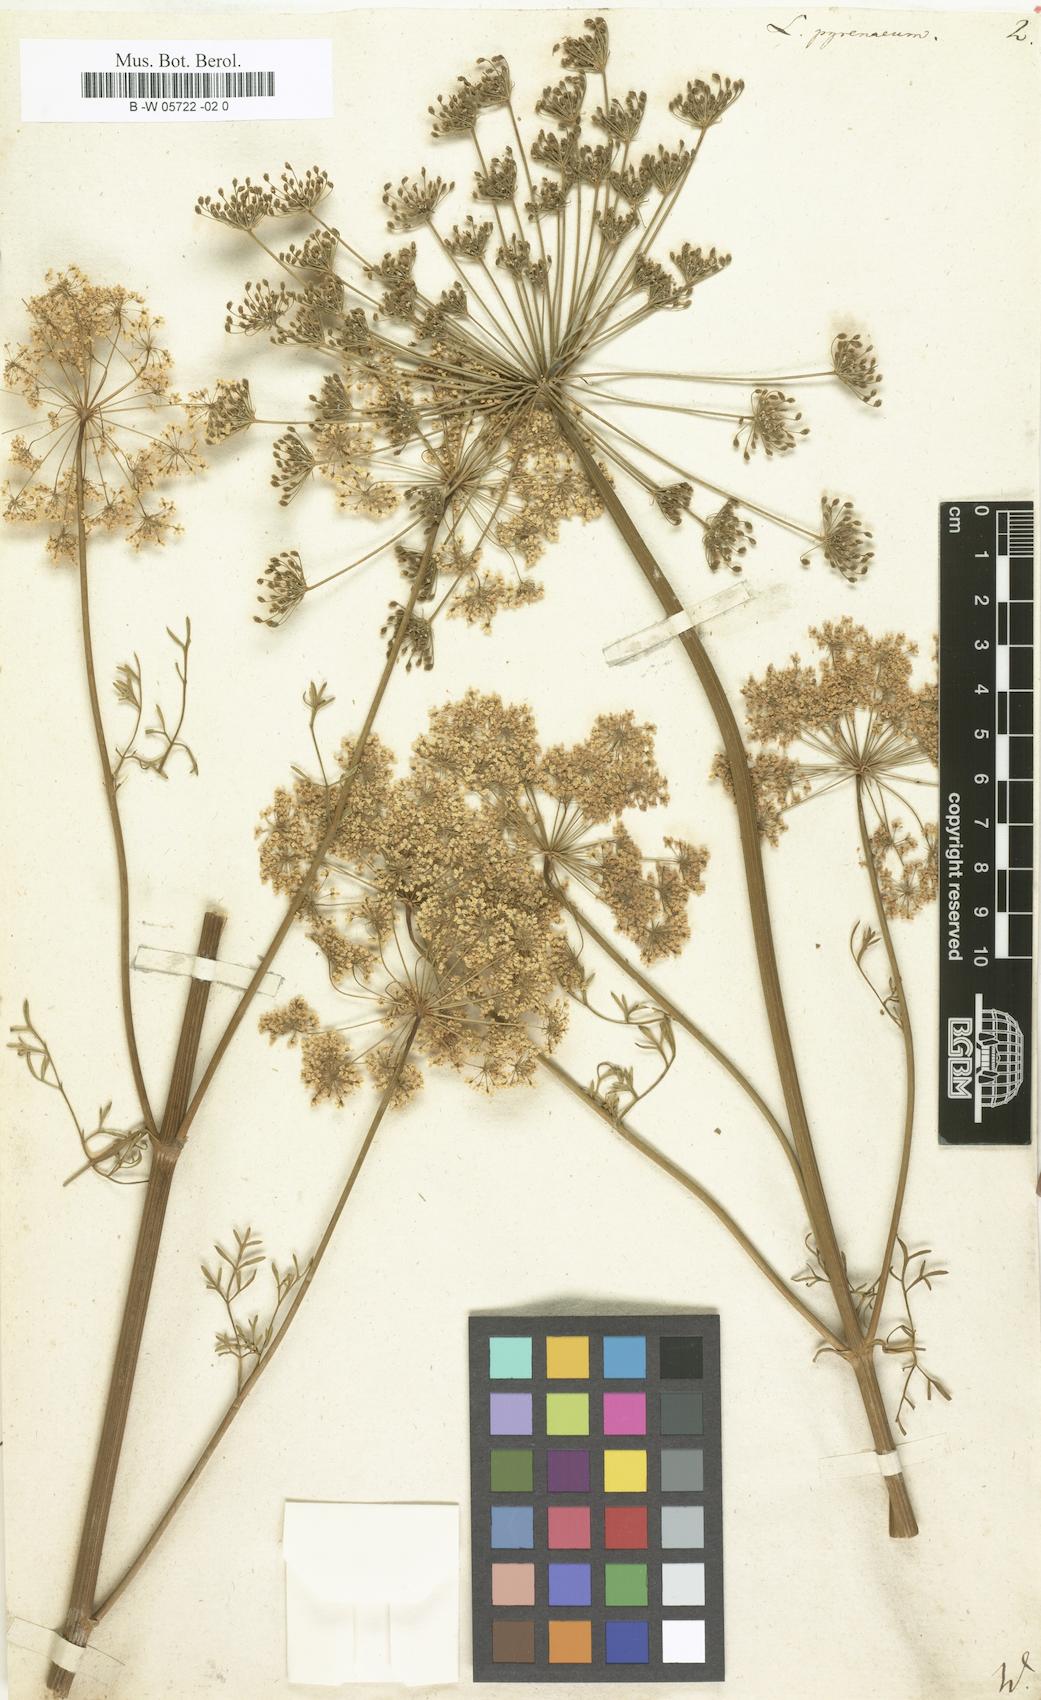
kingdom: Plantae
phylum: Tracheophyta
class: Magnoliopsida
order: Apiales
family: Apiaceae
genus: Epikeros
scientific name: Epikeros pyrenaeus
